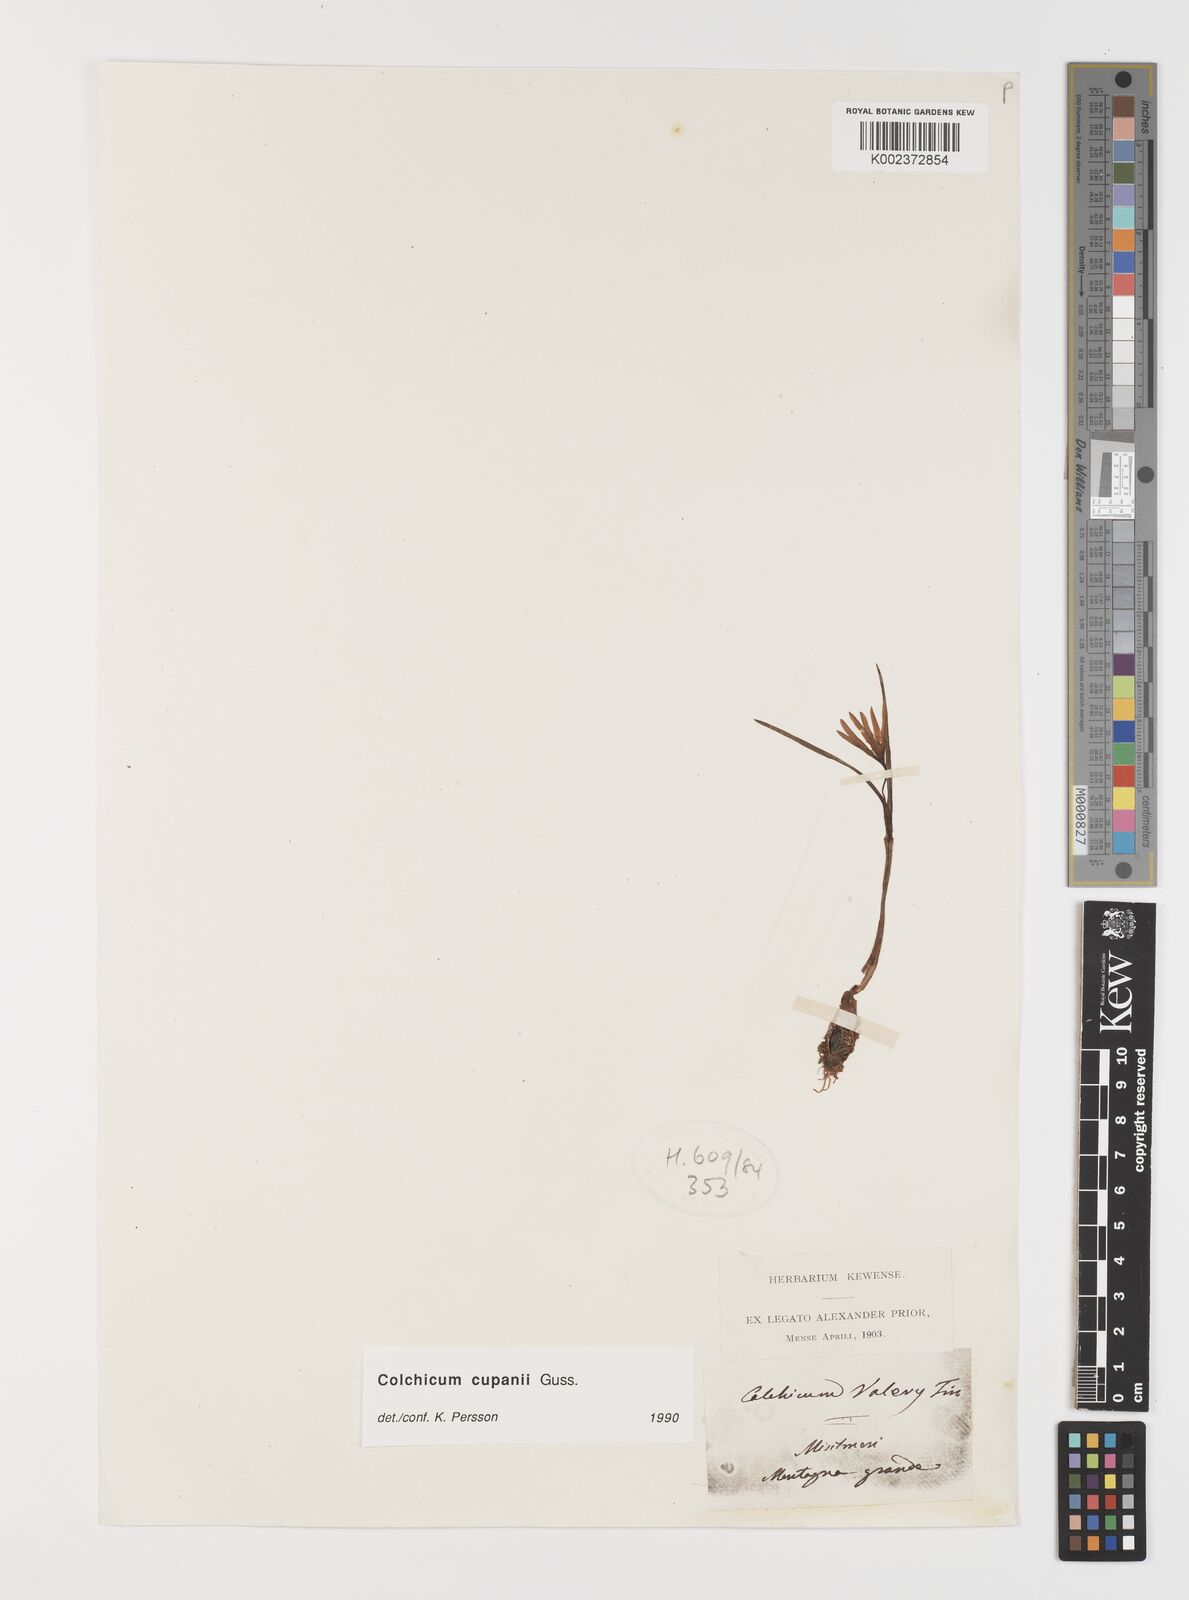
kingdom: Plantae
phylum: Tracheophyta
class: Liliopsida
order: Liliales
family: Colchicaceae
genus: Colchicum
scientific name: Colchicum cupanii
